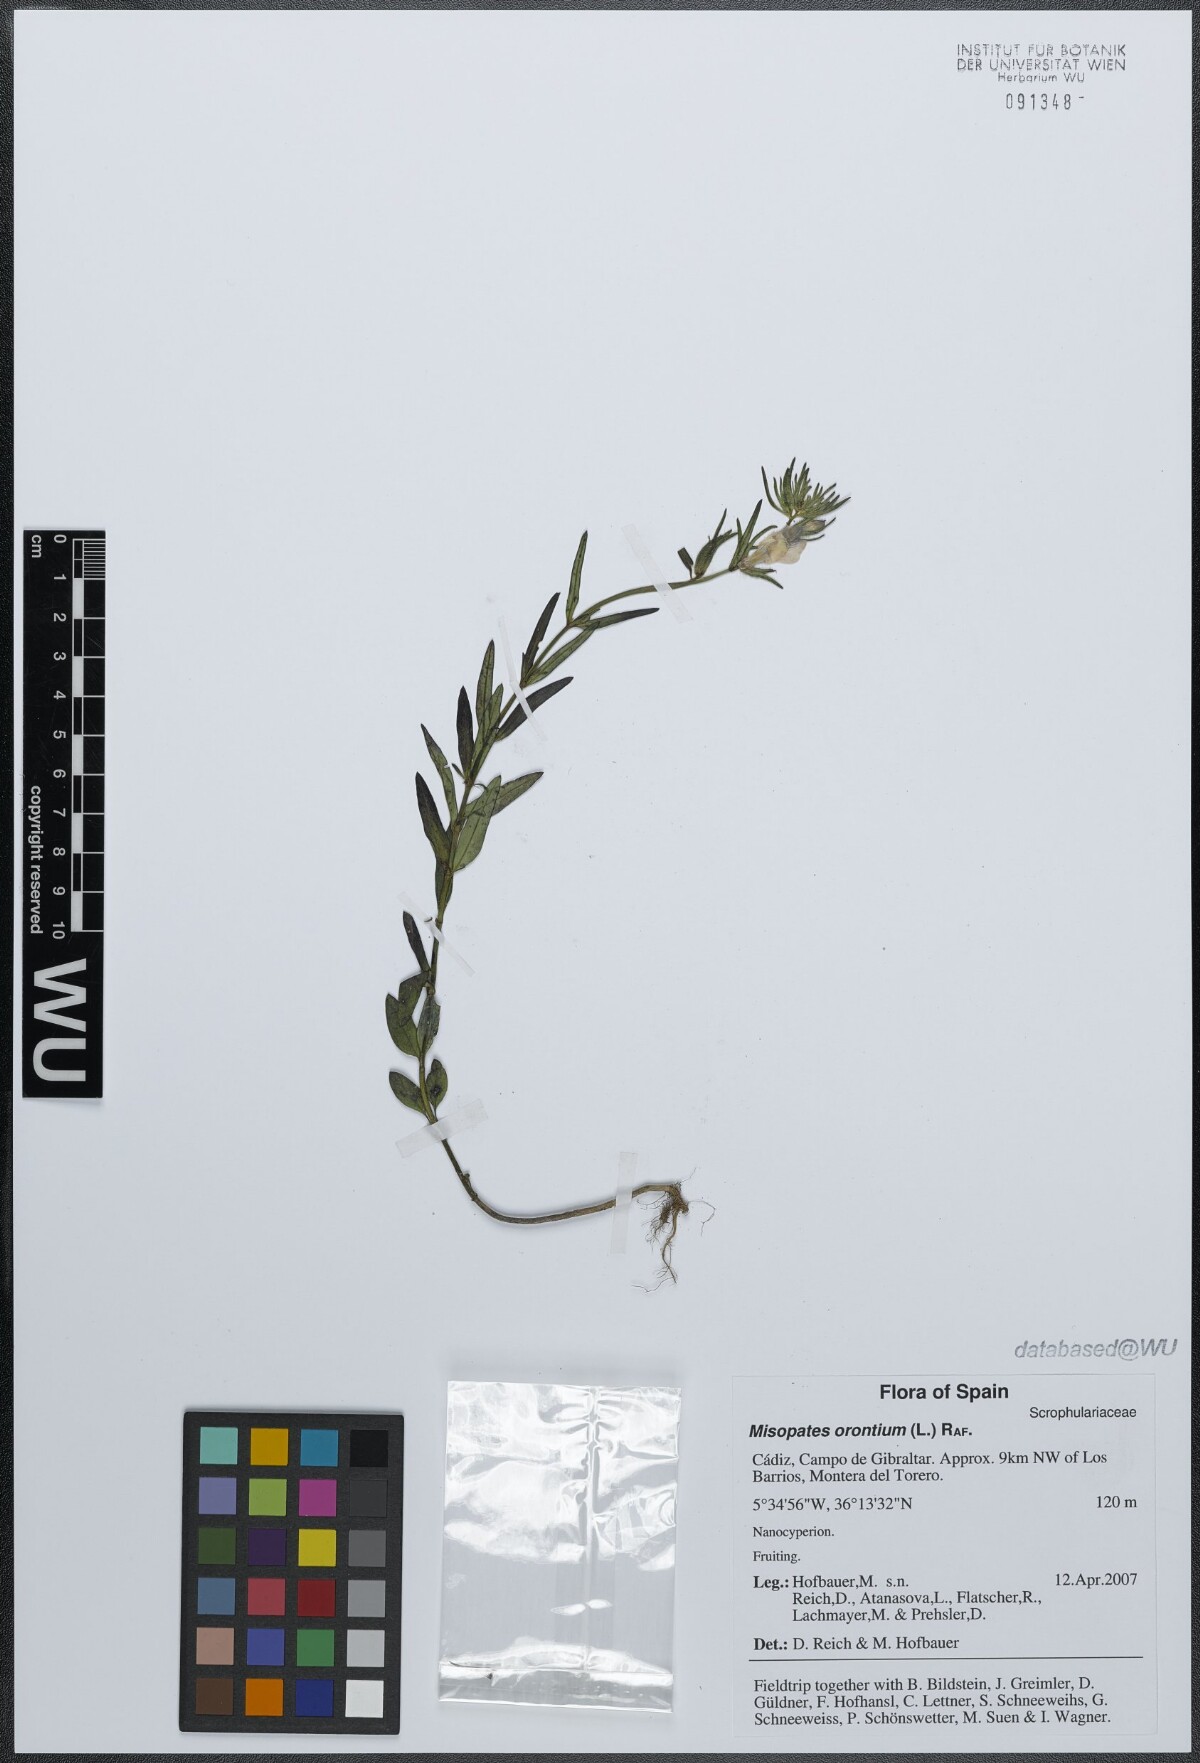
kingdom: Plantae
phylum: Tracheophyta
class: Magnoliopsida
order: Lamiales
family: Plantaginaceae
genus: Misopates
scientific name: Misopates orontium
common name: Weasel's-snout
